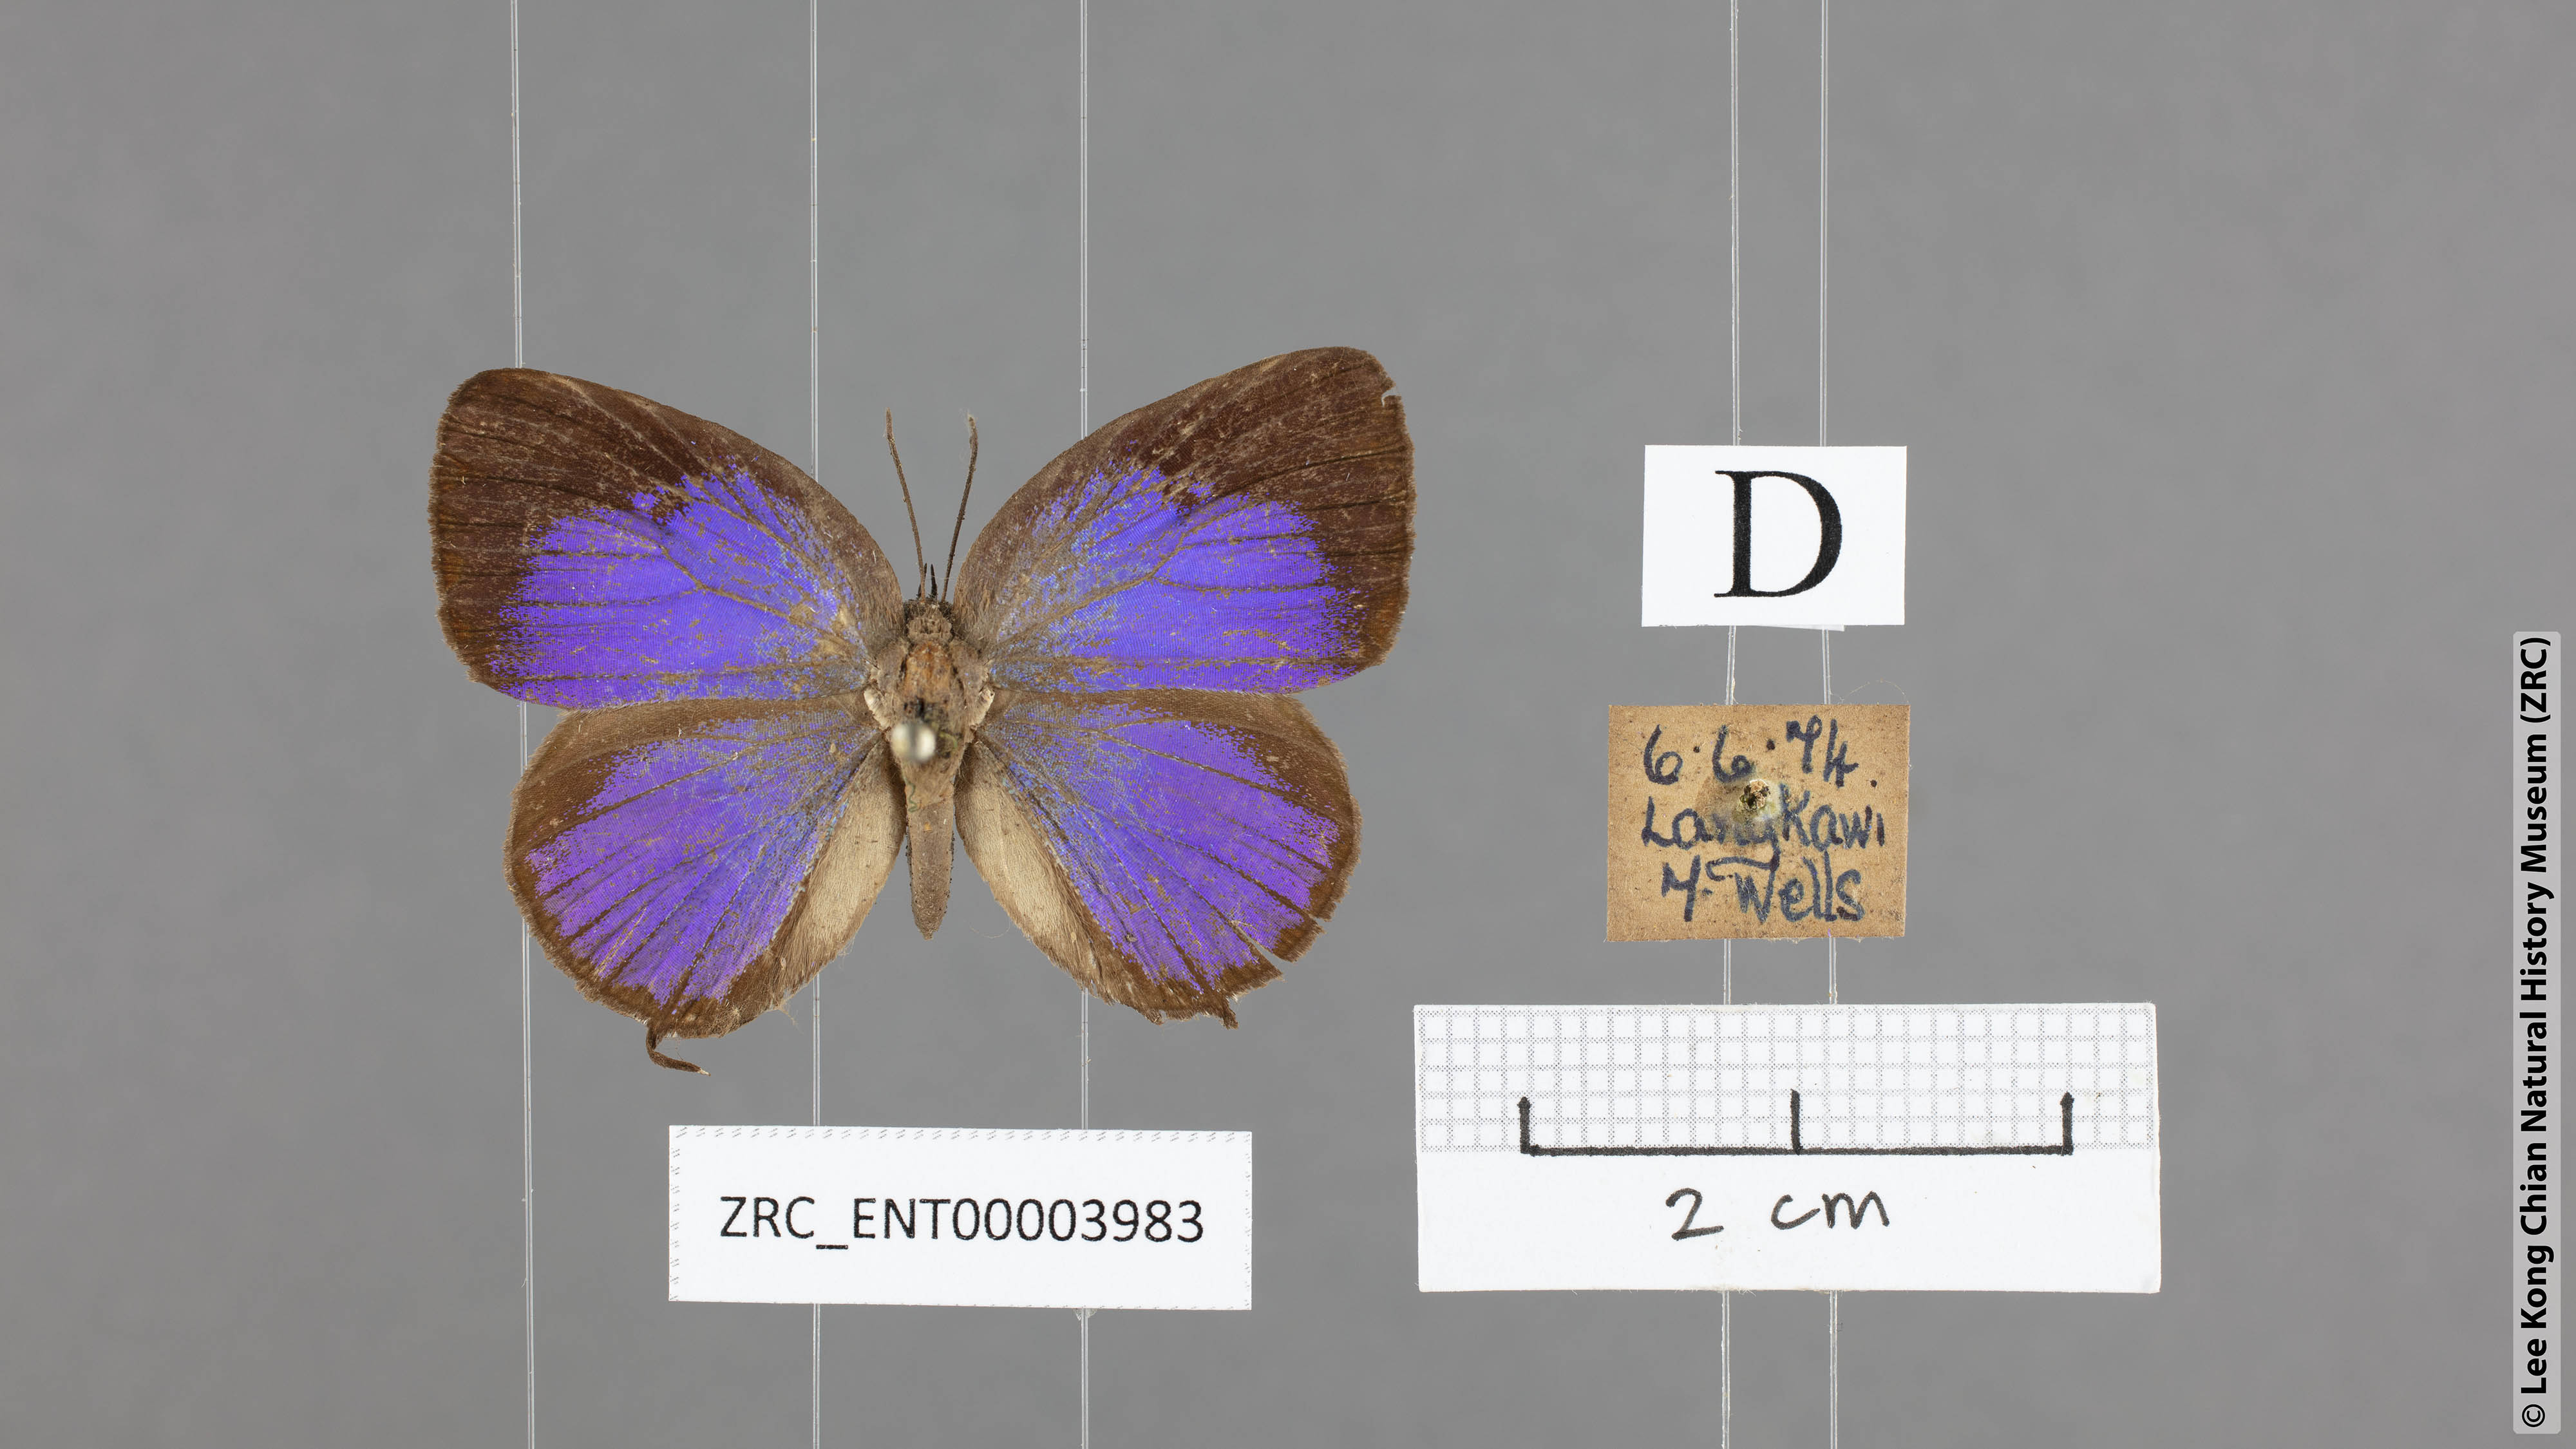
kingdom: Animalia
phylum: Arthropoda
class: Insecta
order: Lepidoptera
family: Lycaenidae
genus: Arhopala
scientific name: Arhopala atosia
